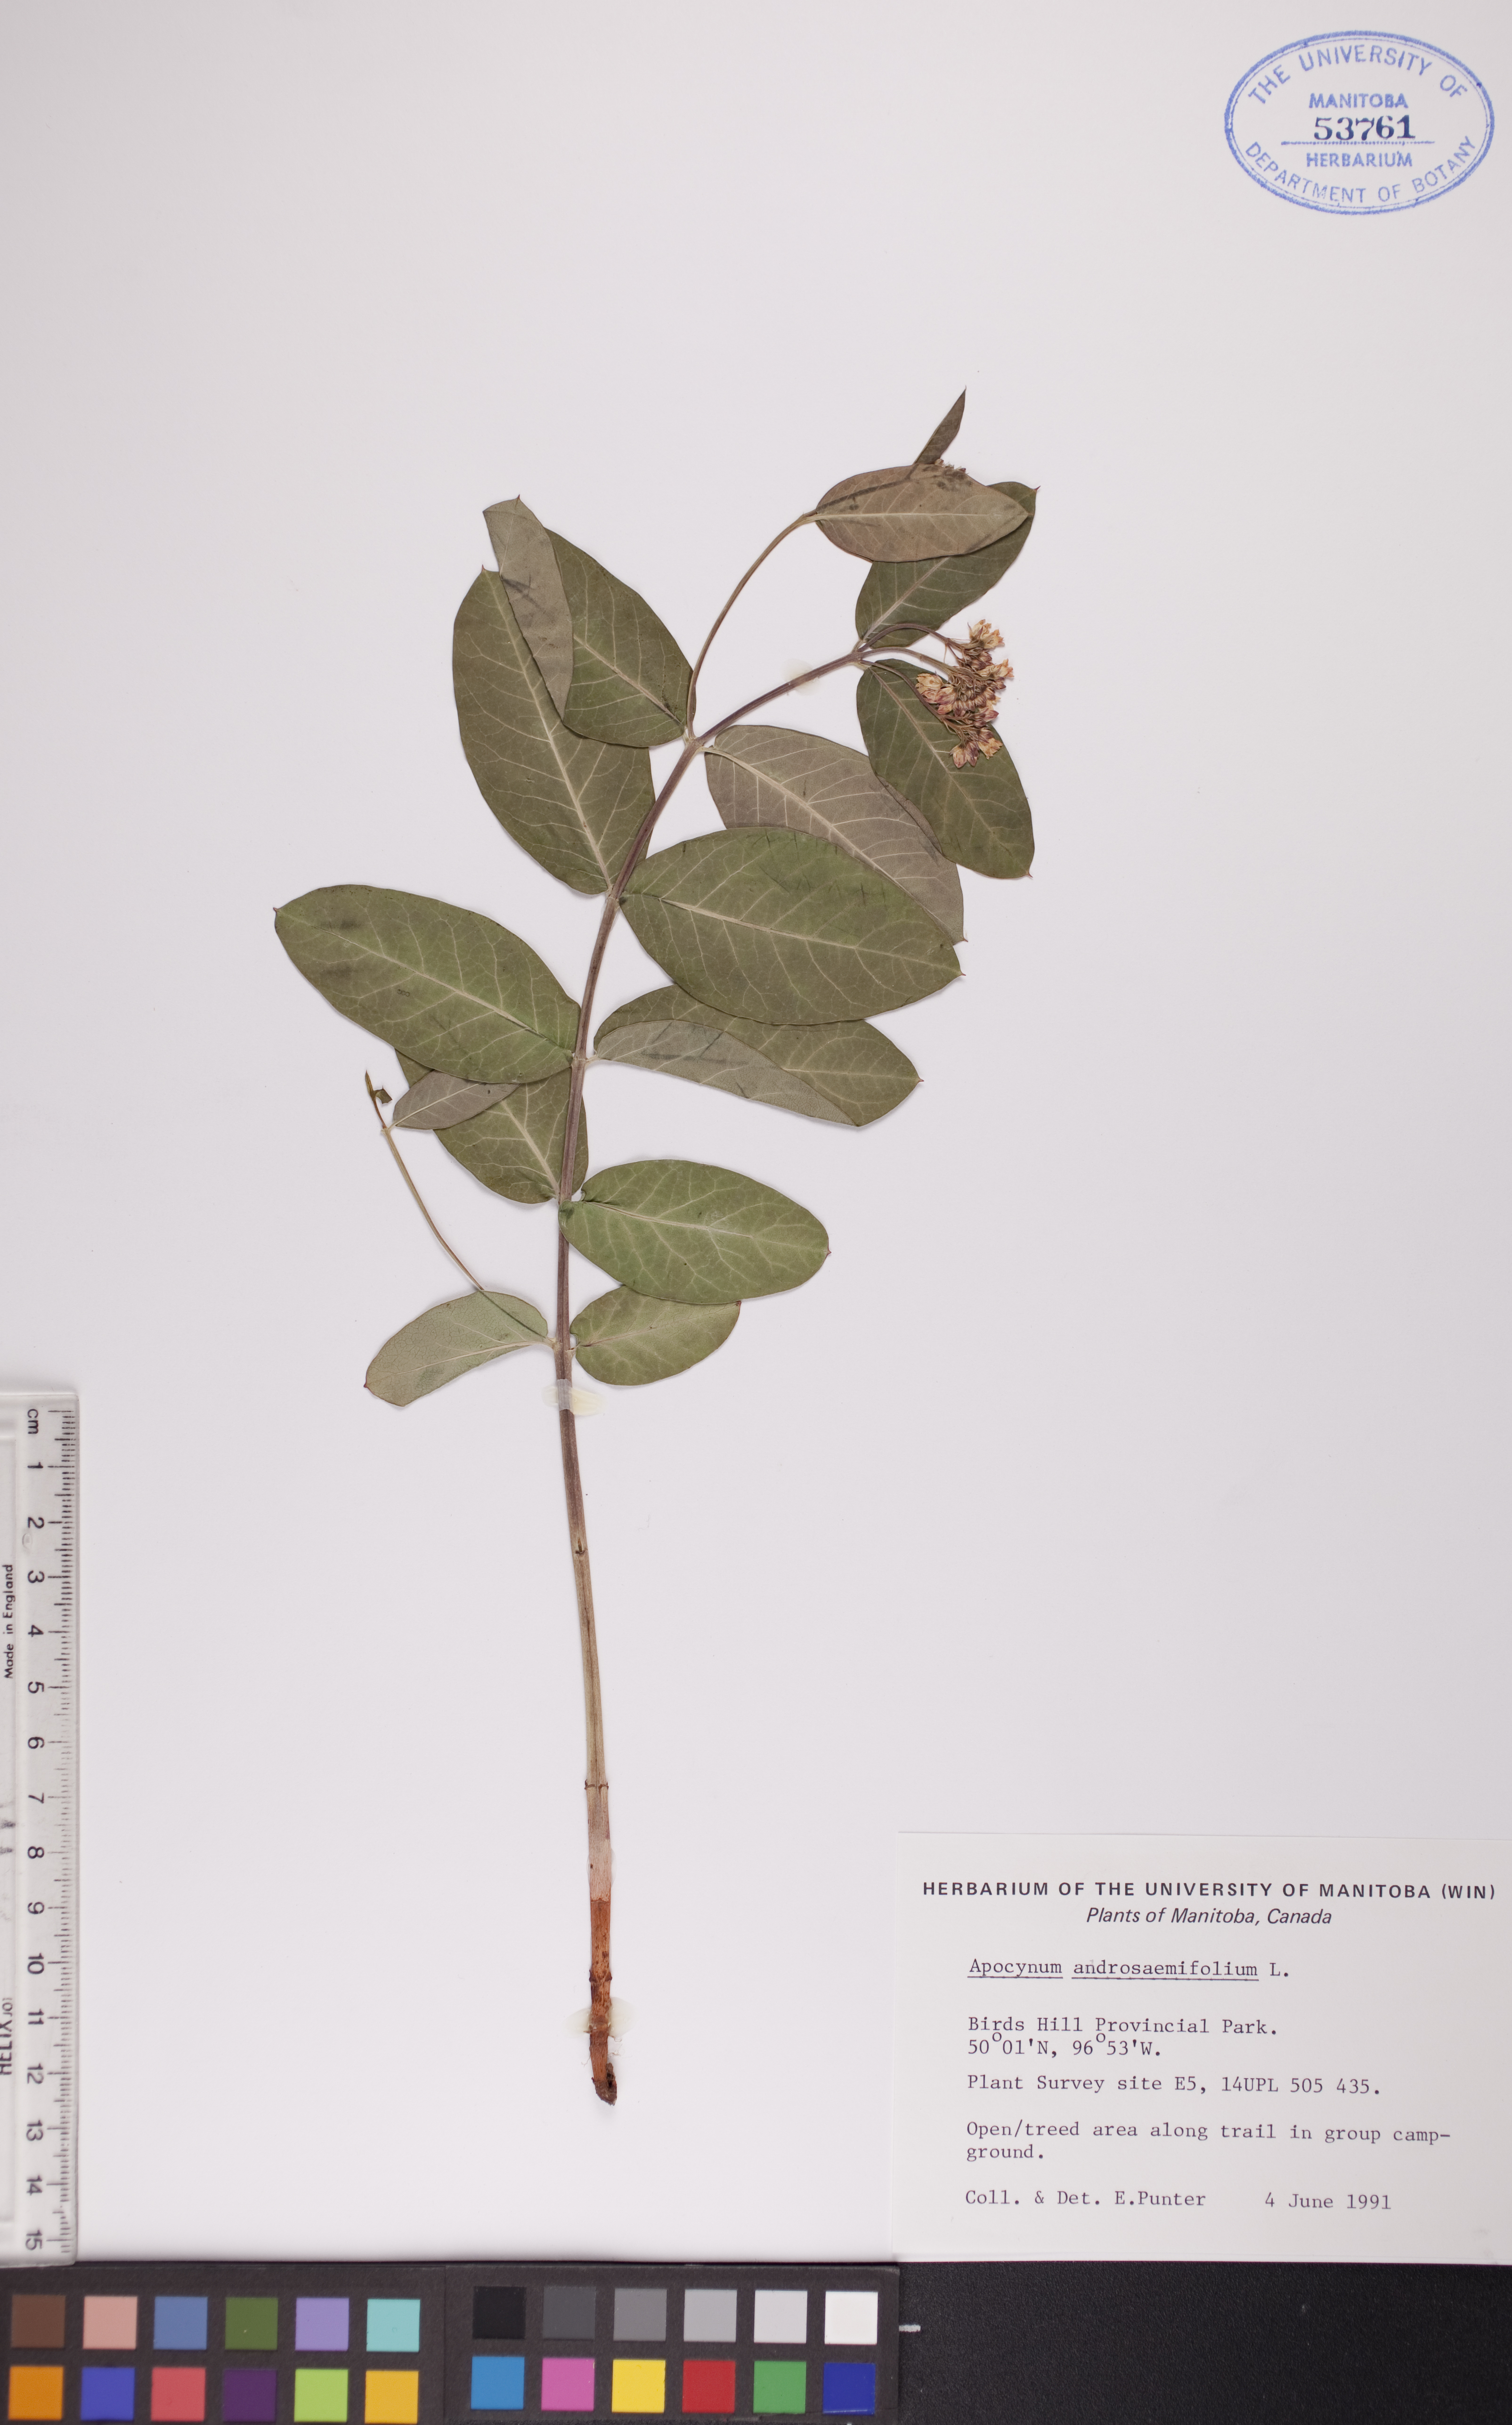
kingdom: Plantae
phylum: Tracheophyta
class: Magnoliopsida
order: Gentianales
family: Apocynaceae
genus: Apocynum
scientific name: Apocynum androsaemifolium
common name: Spreading dogbane
